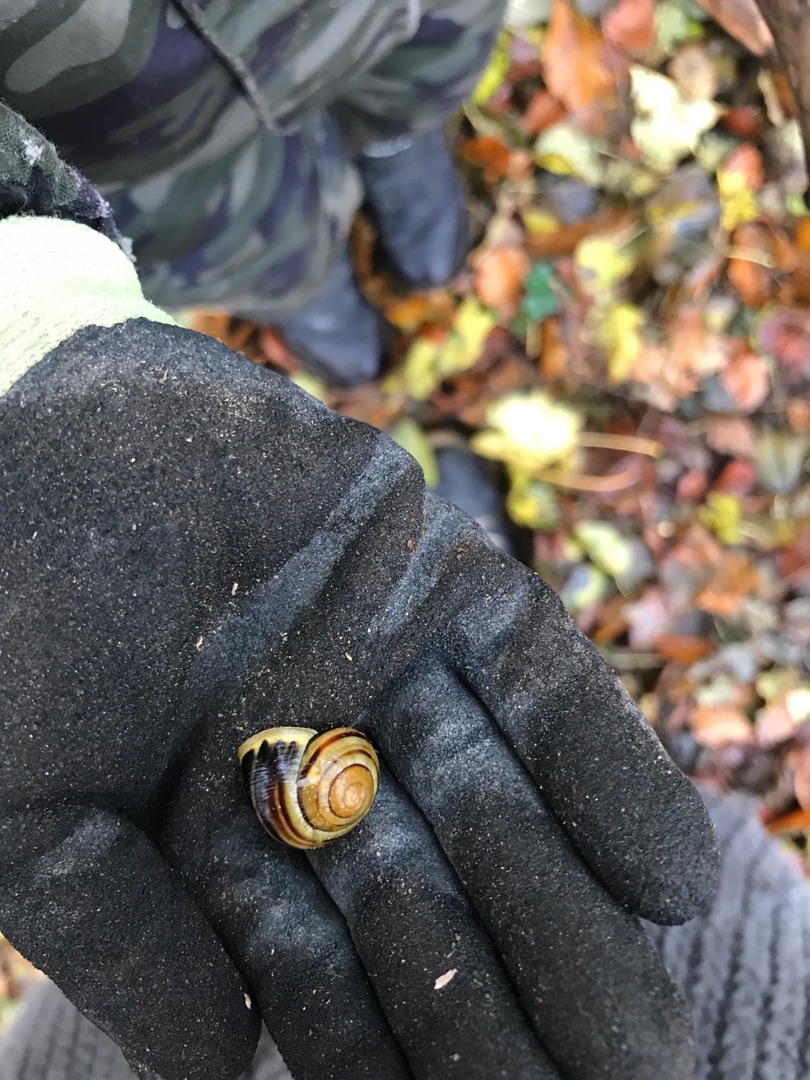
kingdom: Animalia
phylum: Mollusca
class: Gastropoda
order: Stylommatophora
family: Helicidae
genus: Cepaea
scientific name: Cepaea hortensis
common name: Havesnegl
